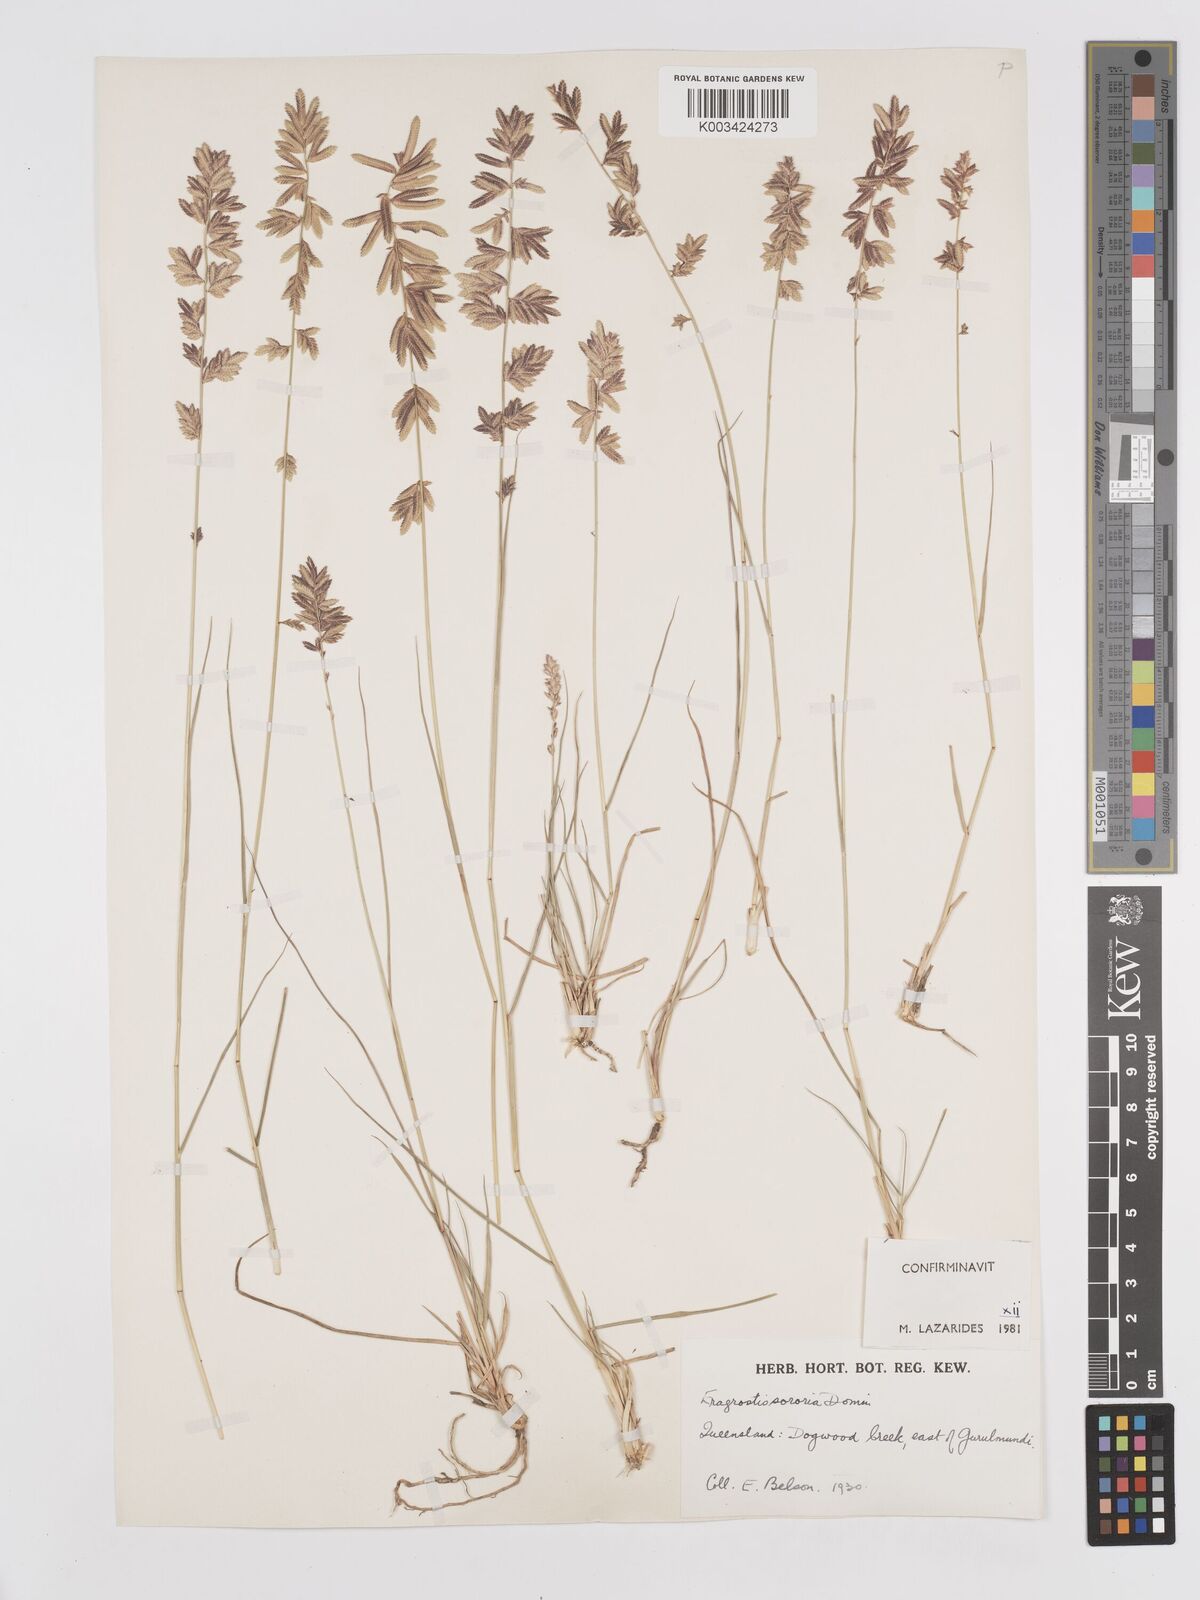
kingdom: Plantae
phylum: Tracheophyta
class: Liliopsida
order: Poales
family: Poaceae
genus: Eragrostis
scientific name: Eragrostis sororia
